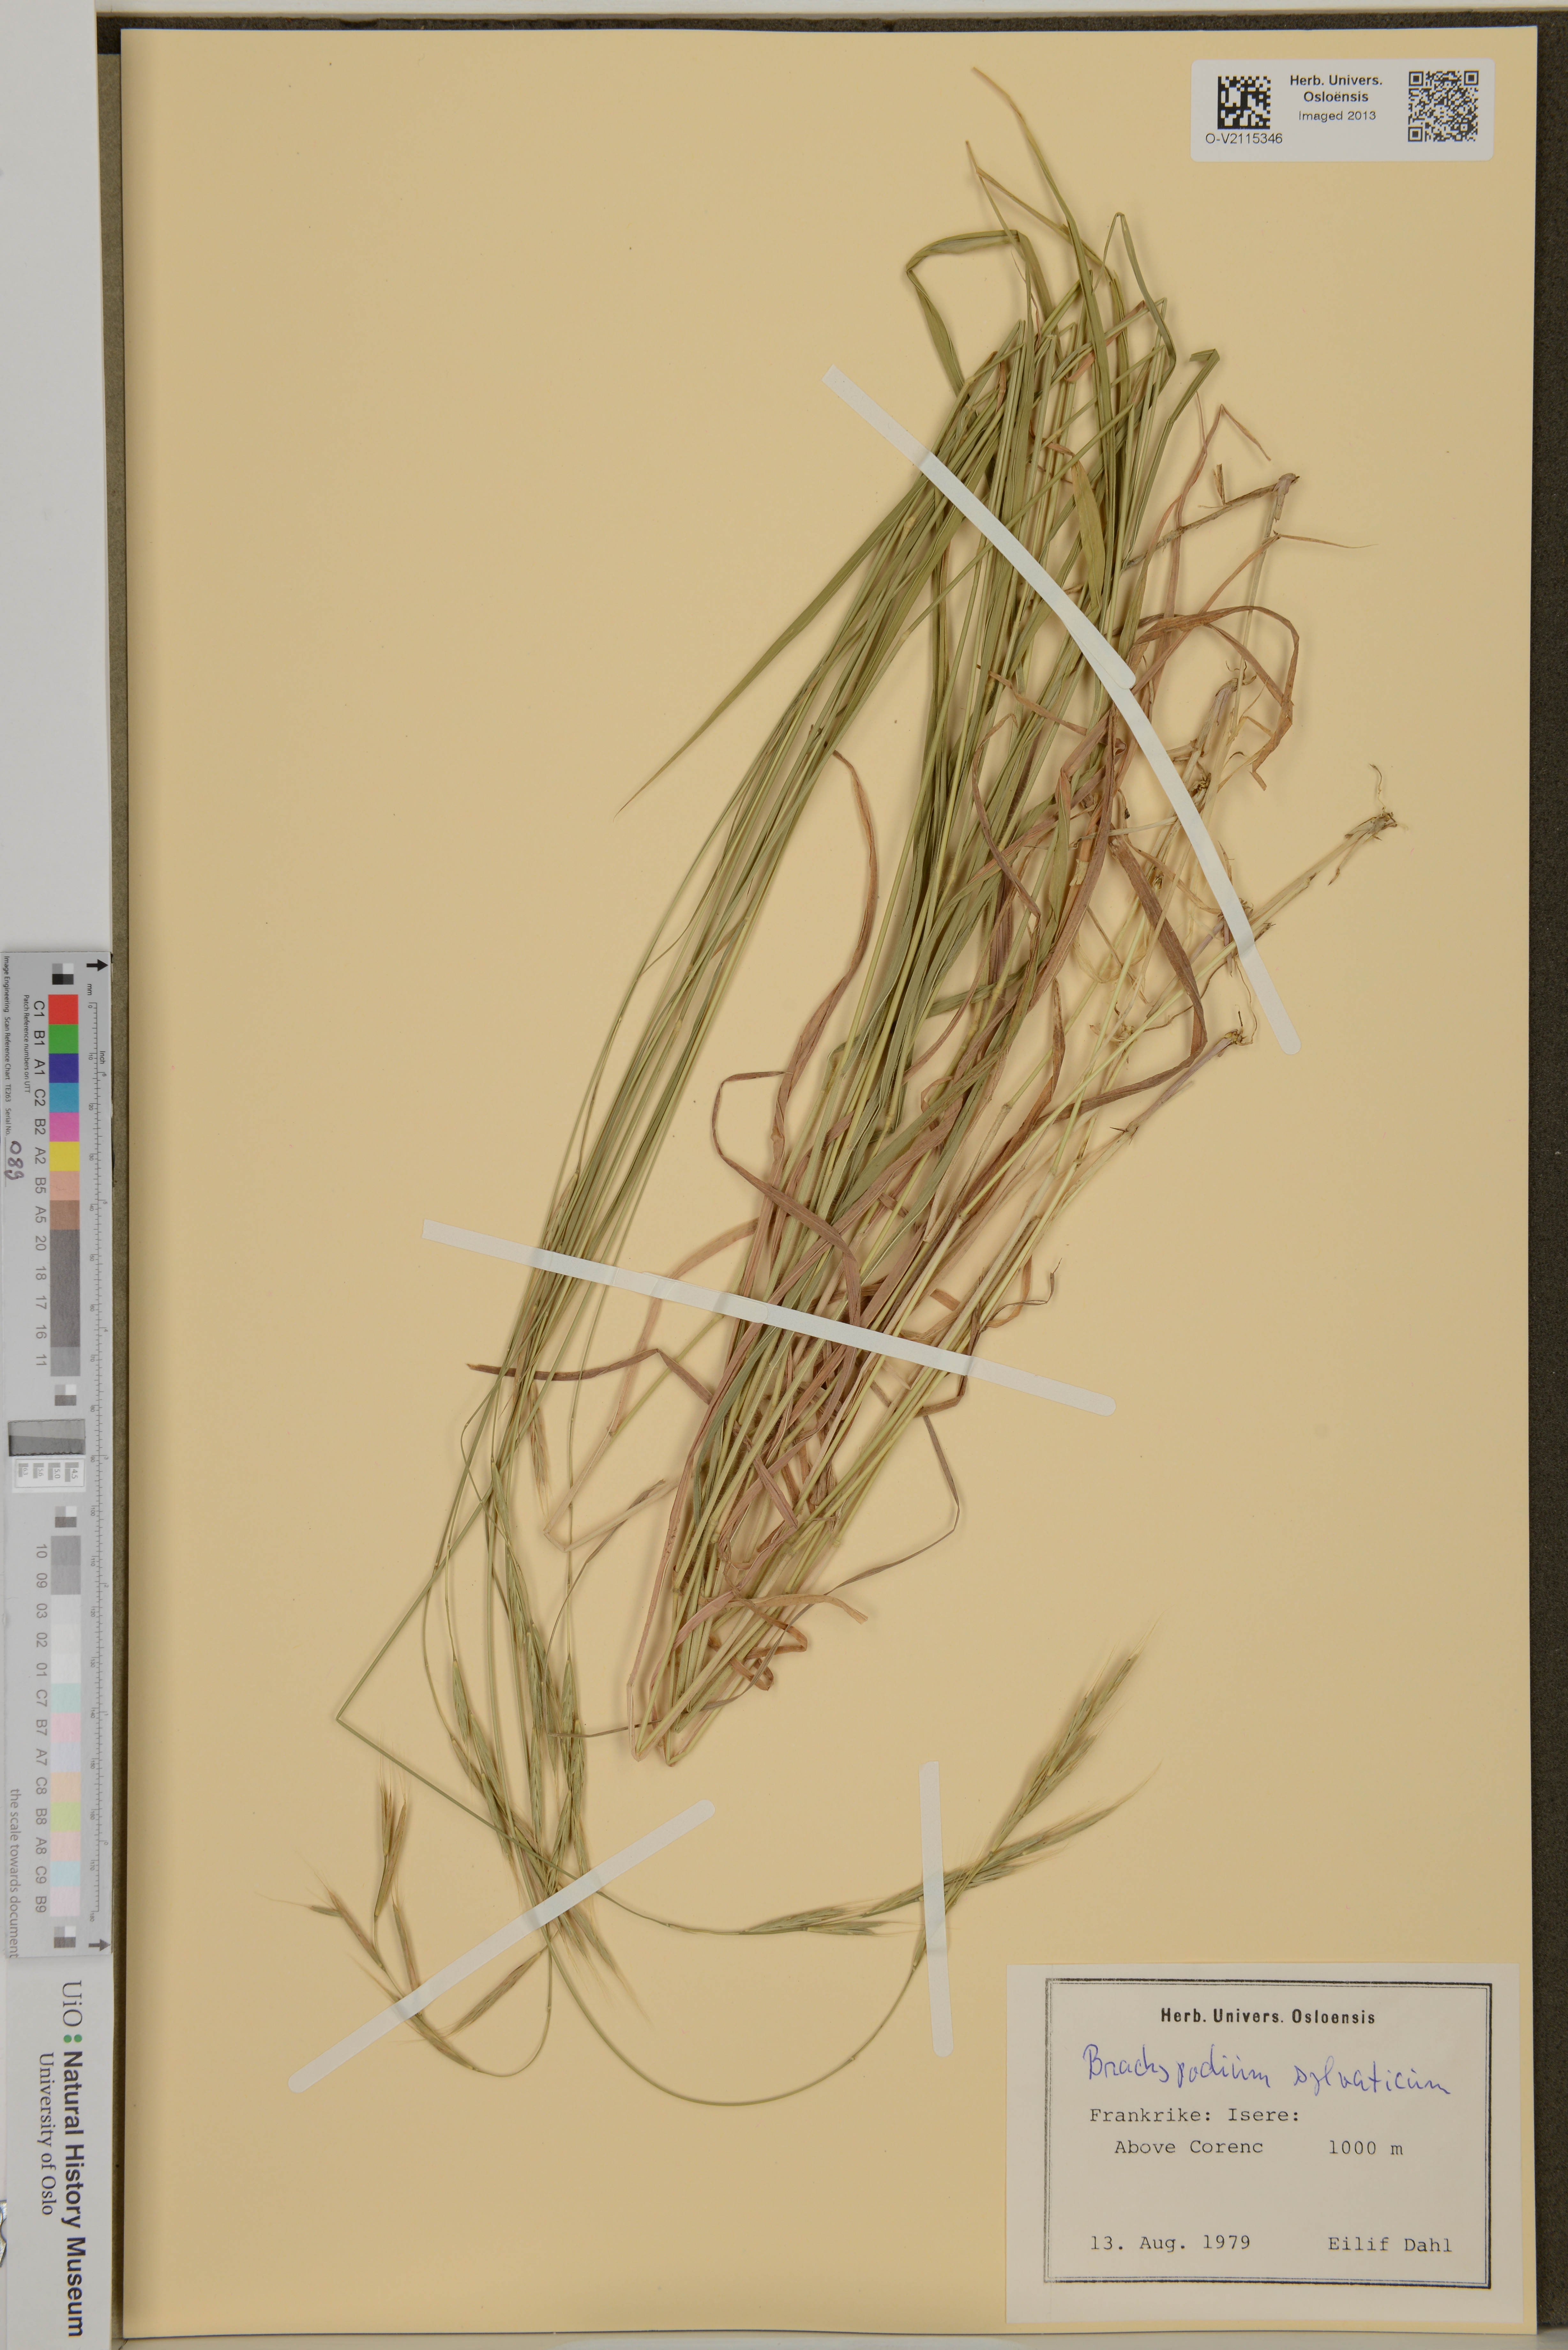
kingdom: Plantae
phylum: Tracheophyta
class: Liliopsida
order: Poales
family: Poaceae
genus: Brachypodium
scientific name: Brachypodium sylvaticum
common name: False-brome
